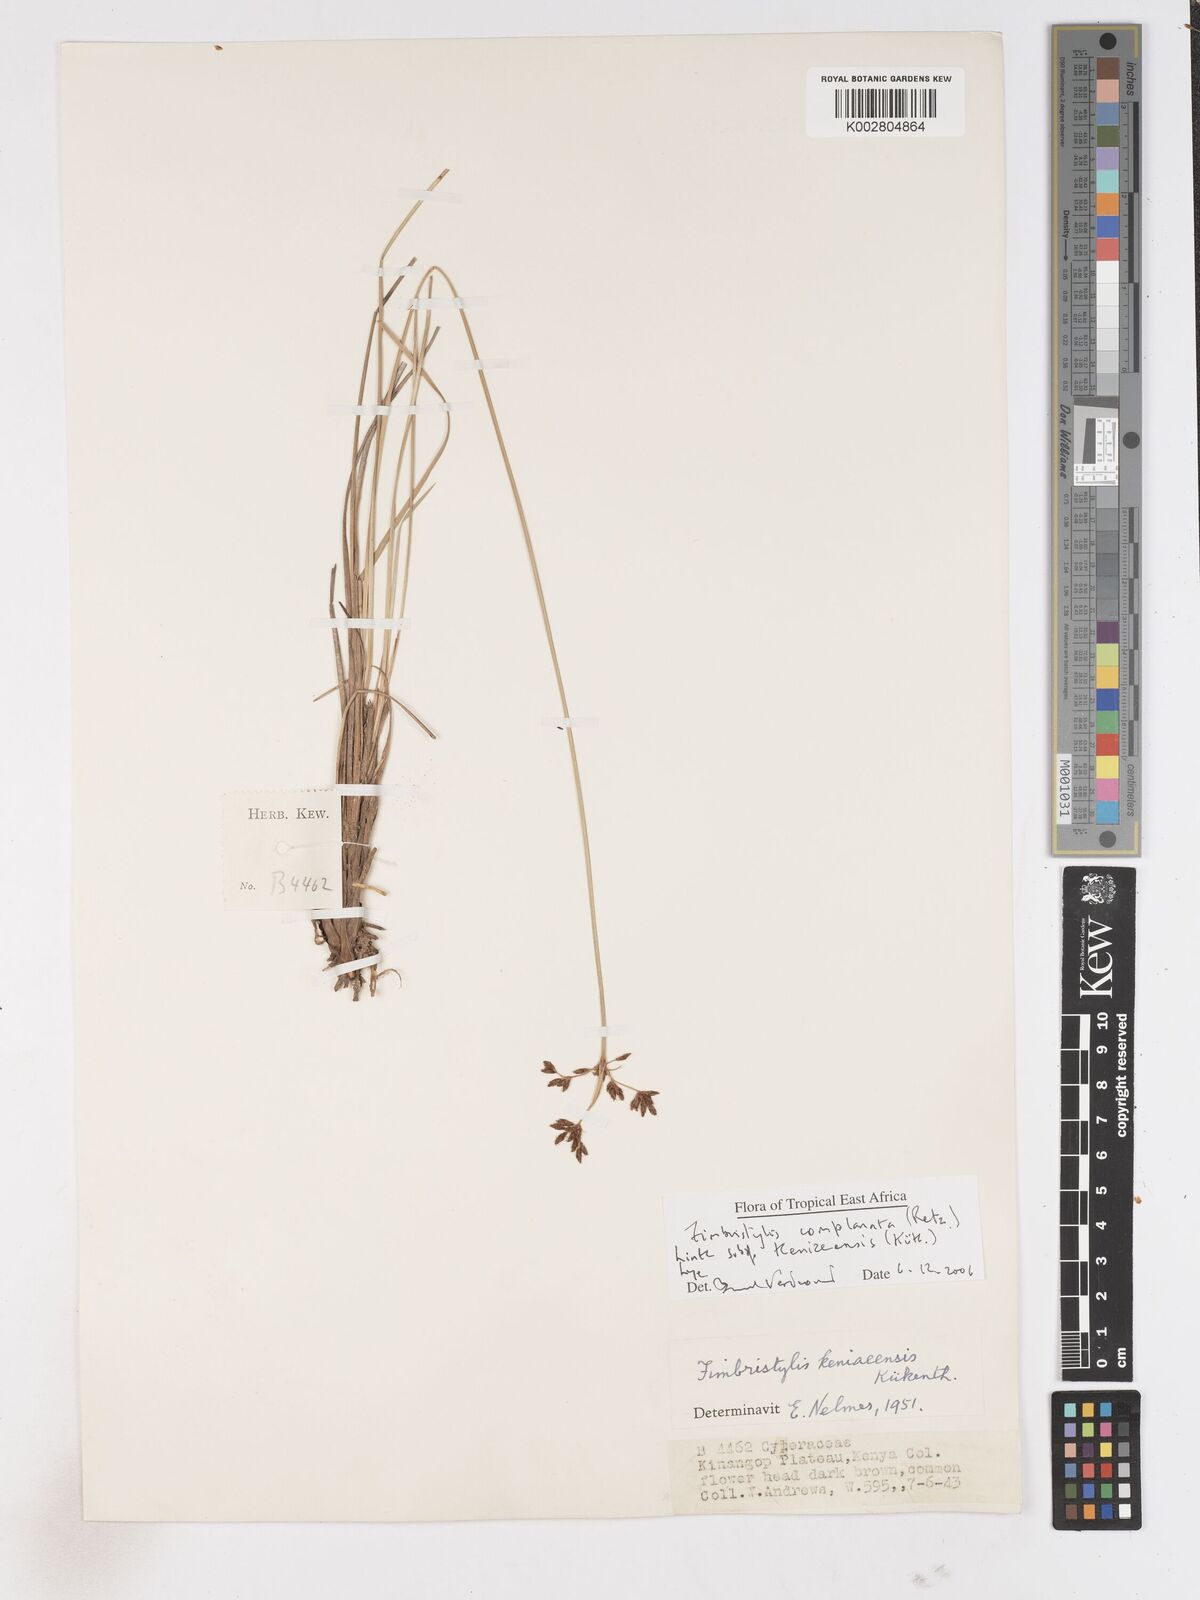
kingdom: Plantae
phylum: Tracheophyta
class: Liliopsida
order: Poales
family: Cyperaceae
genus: Fimbristylis
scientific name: Fimbristylis complanata
